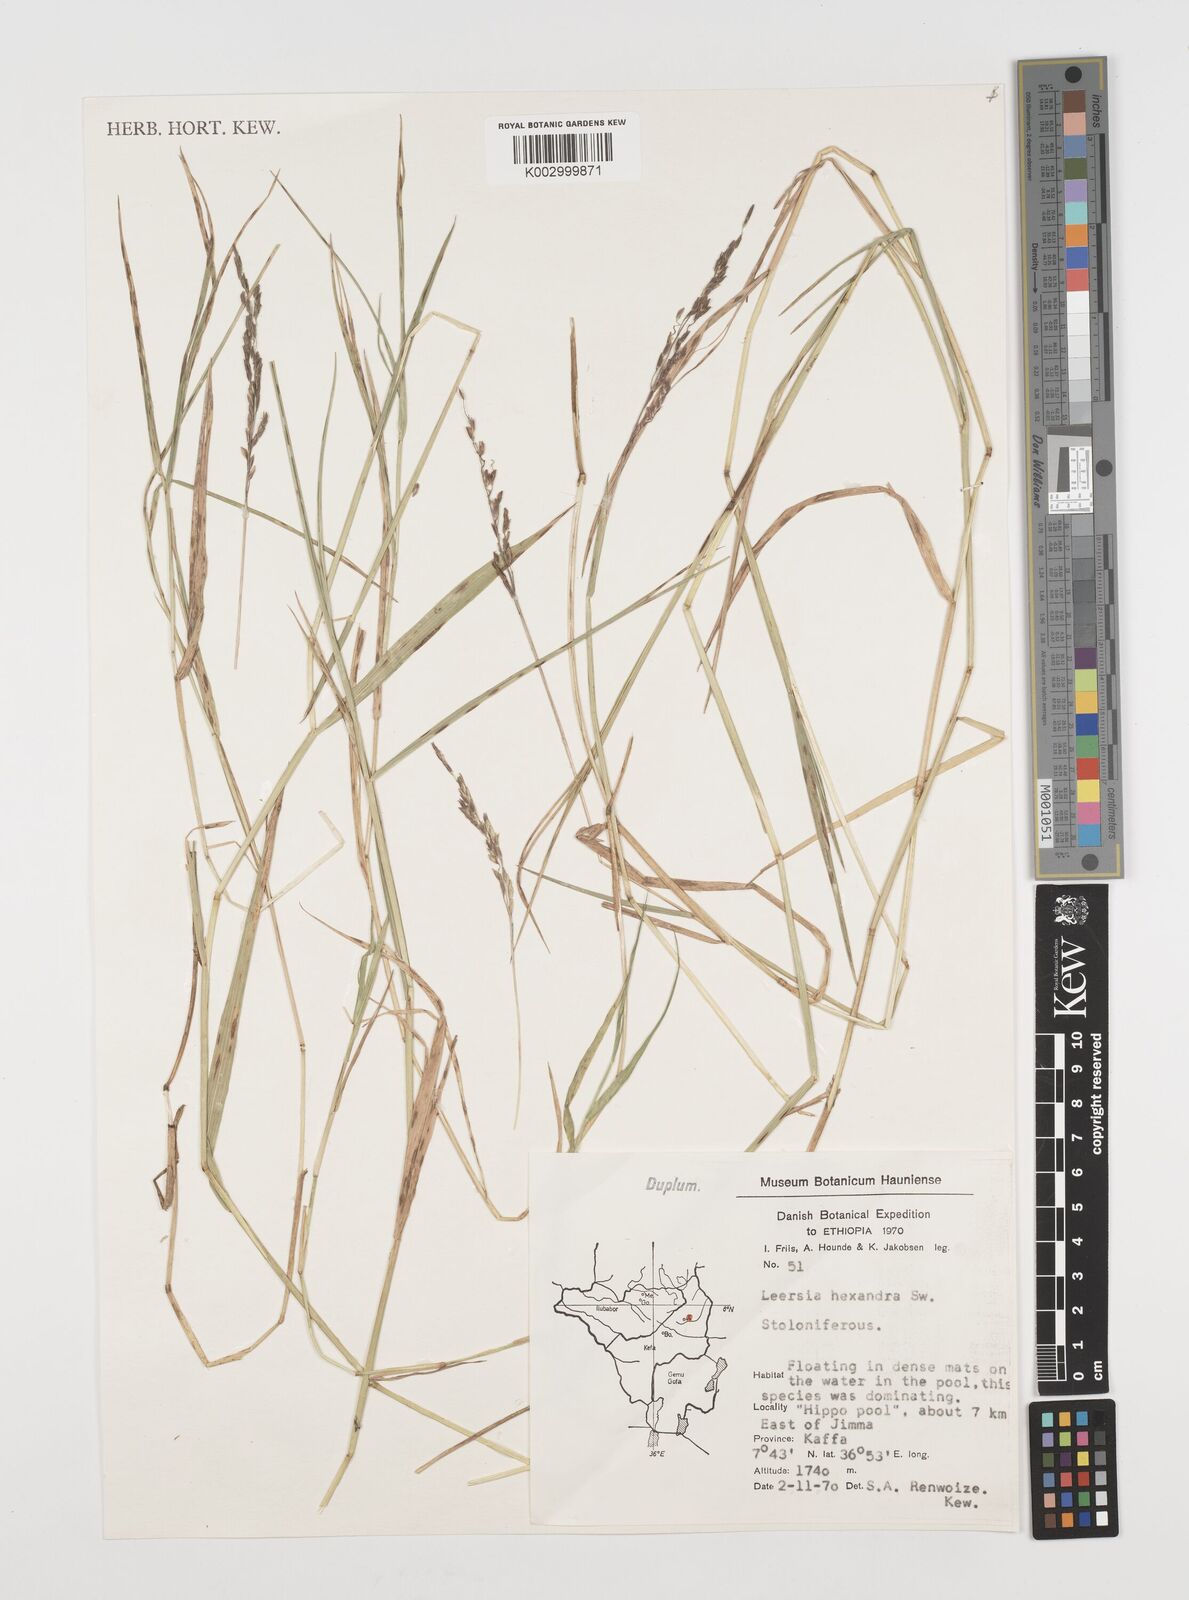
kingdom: Plantae
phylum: Tracheophyta
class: Liliopsida
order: Poales
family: Poaceae
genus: Leersia
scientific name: Leersia hexandra
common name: Southern cut grass
